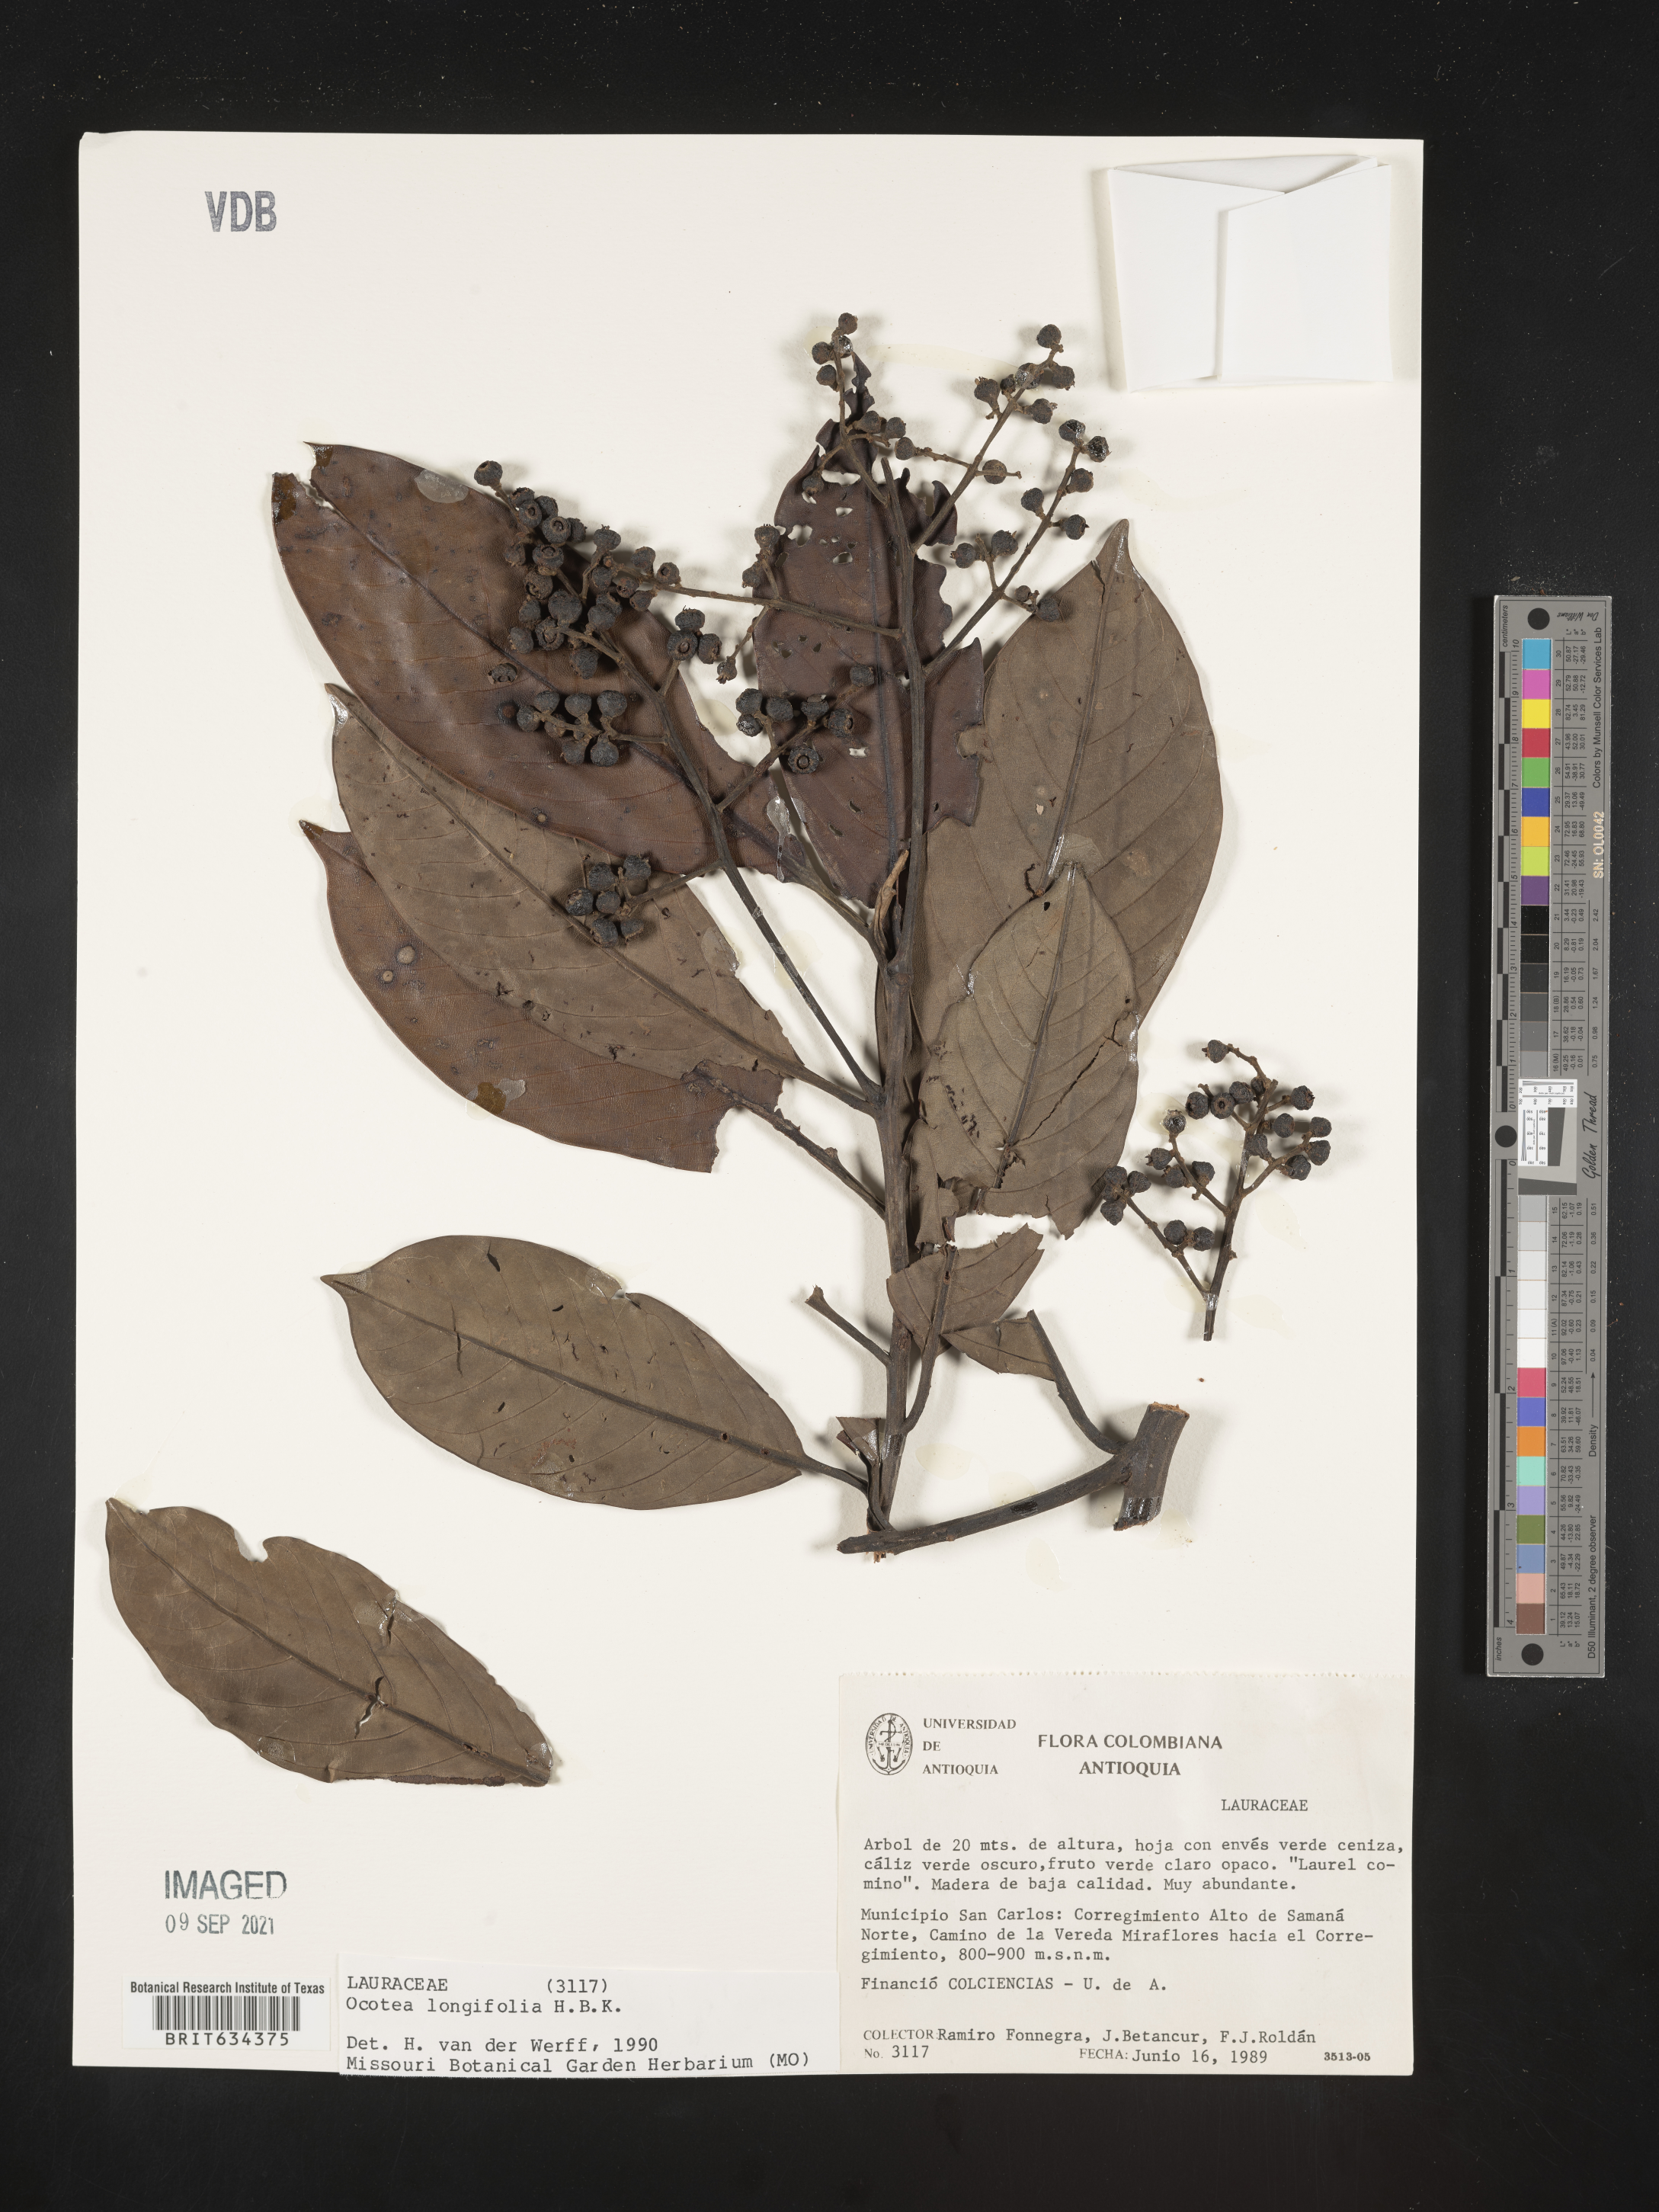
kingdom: Plantae
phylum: Tracheophyta
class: Magnoliopsida
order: Laurales
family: Lauraceae
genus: Ocotea
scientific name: Ocotea
